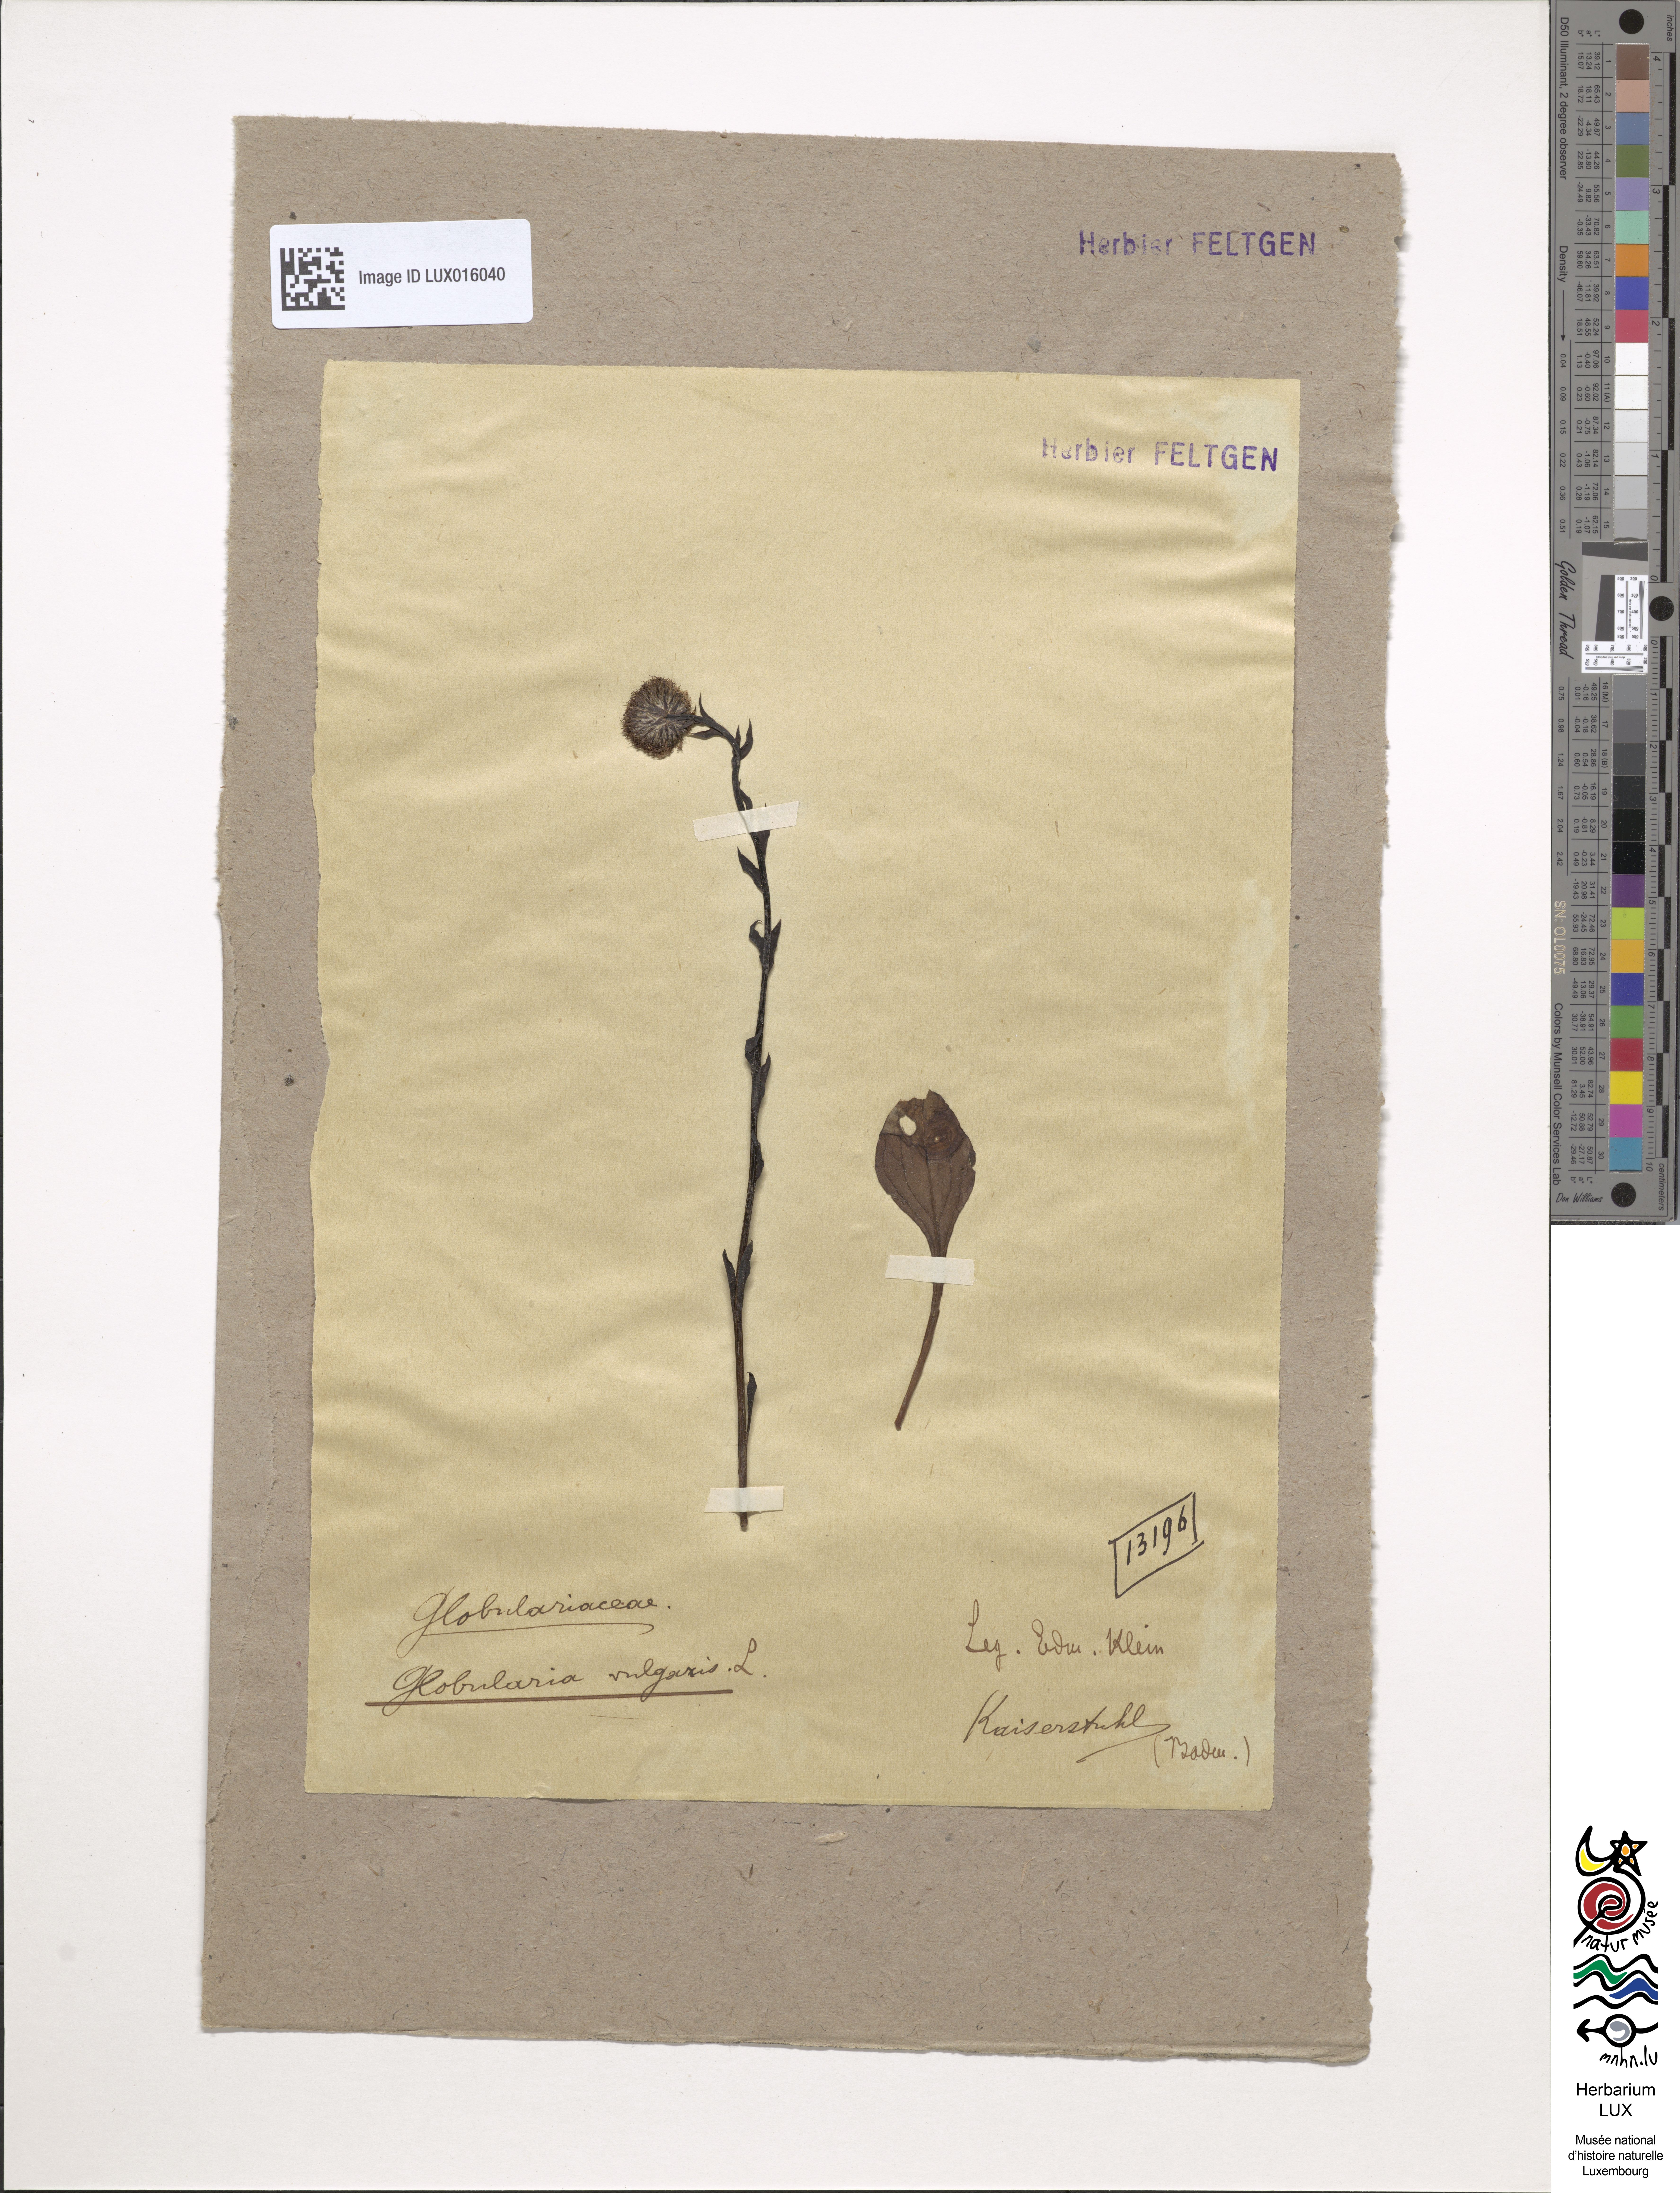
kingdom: Plantae
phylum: Tracheophyta
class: Magnoliopsida
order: Lamiales
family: Plantaginaceae
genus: Globularia
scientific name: Globularia bisnagarica
